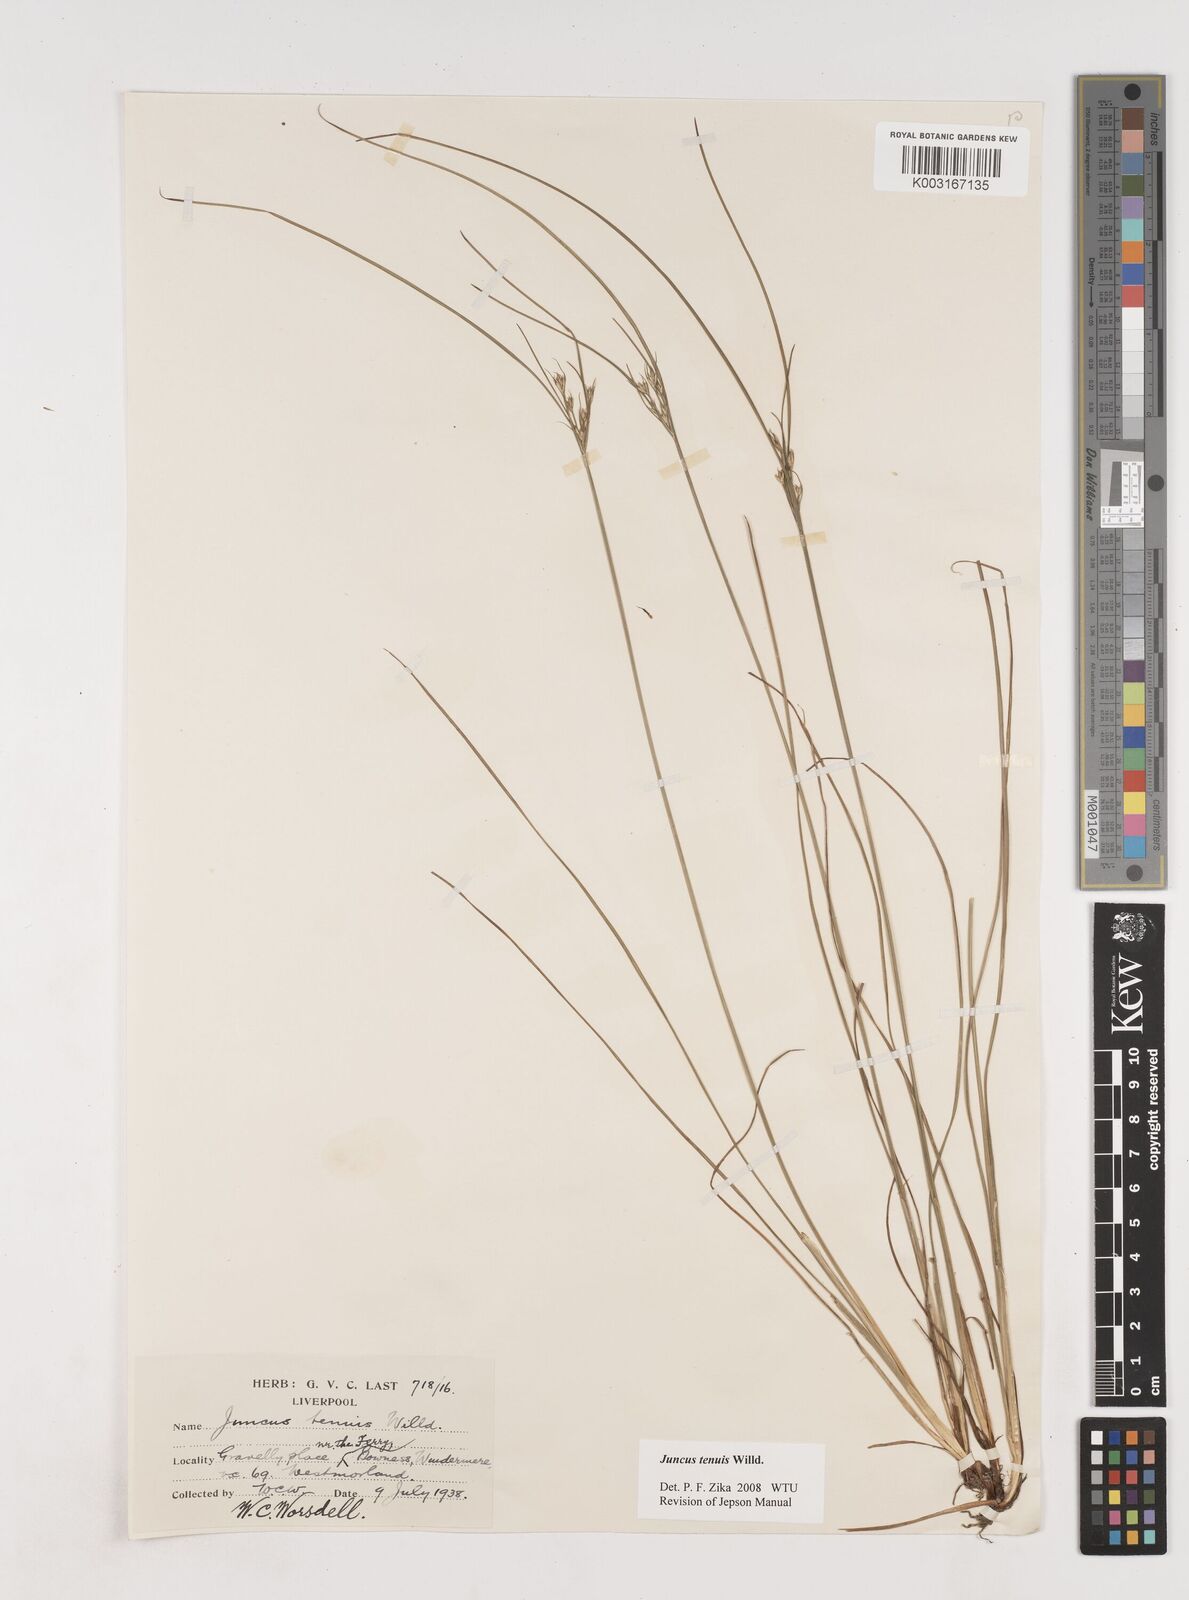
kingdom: Plantae
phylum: Tracheophyta
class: Liliopsida
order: Poales
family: Juncaceae
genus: Juncus
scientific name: Juncus tenuis
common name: Slender rush
